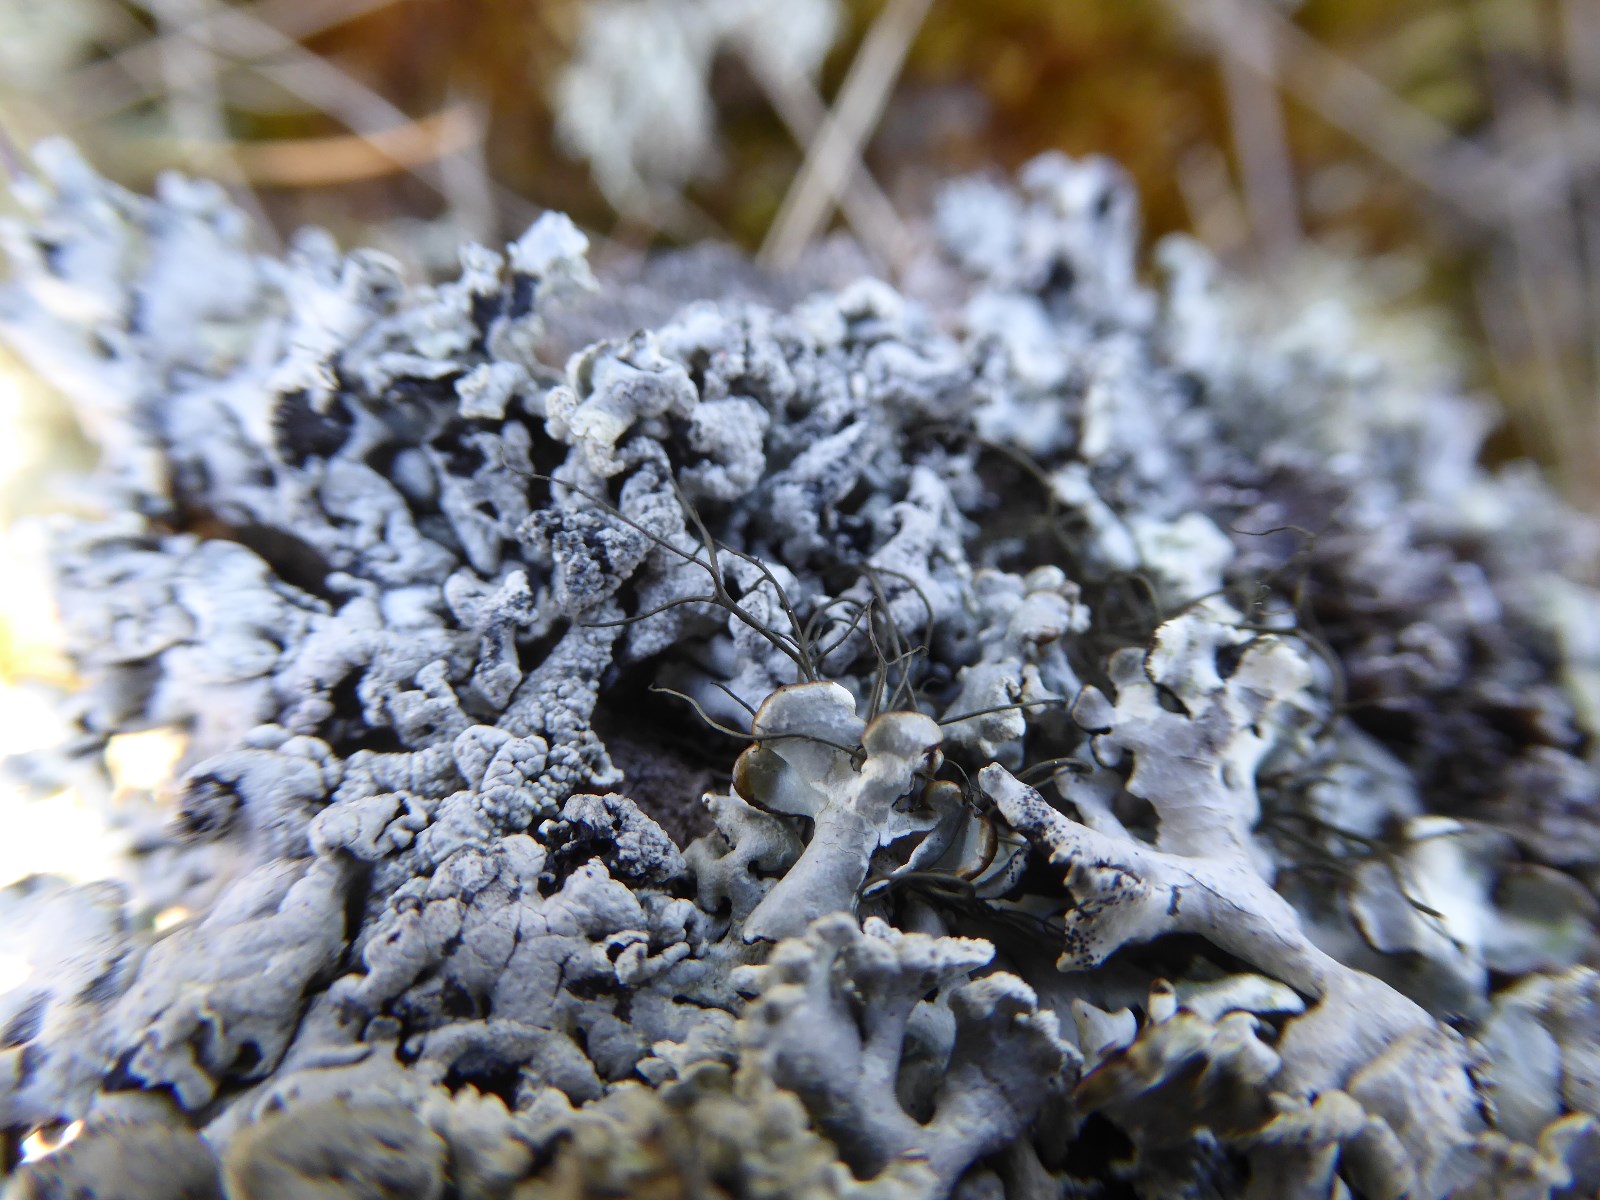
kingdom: Fungi
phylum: Ascomycota
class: Lecanoromycetes
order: Lecanorales
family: Parmeliaceae
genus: Bryoria
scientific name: Bryoria fuscescens
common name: almindelig mankelav
